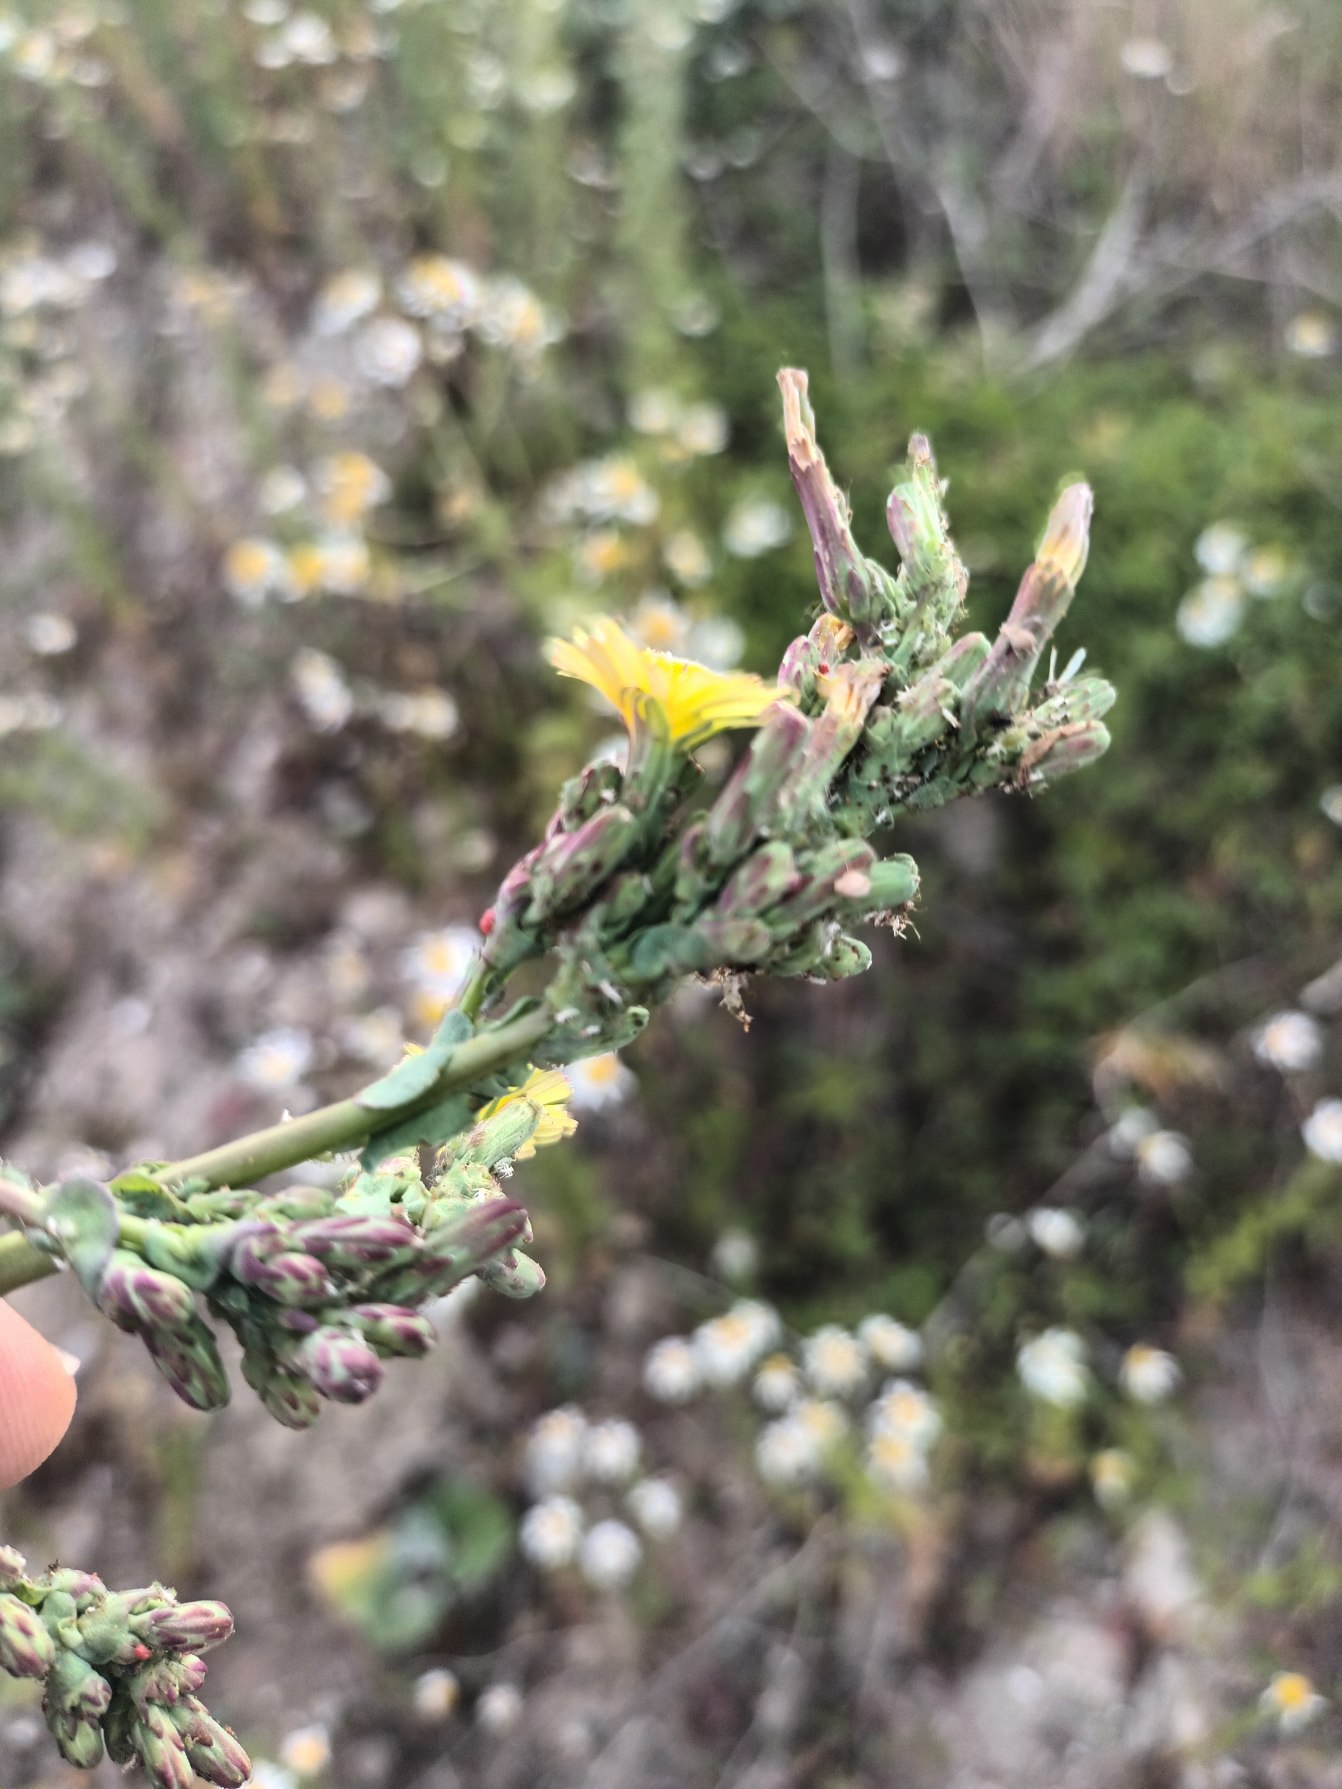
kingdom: Plantae
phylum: Tracheophyta
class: Magnoliopsida
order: Asterales
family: Asteraceae
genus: Lactuca
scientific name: Lactuca serriola
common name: Tornet salat
